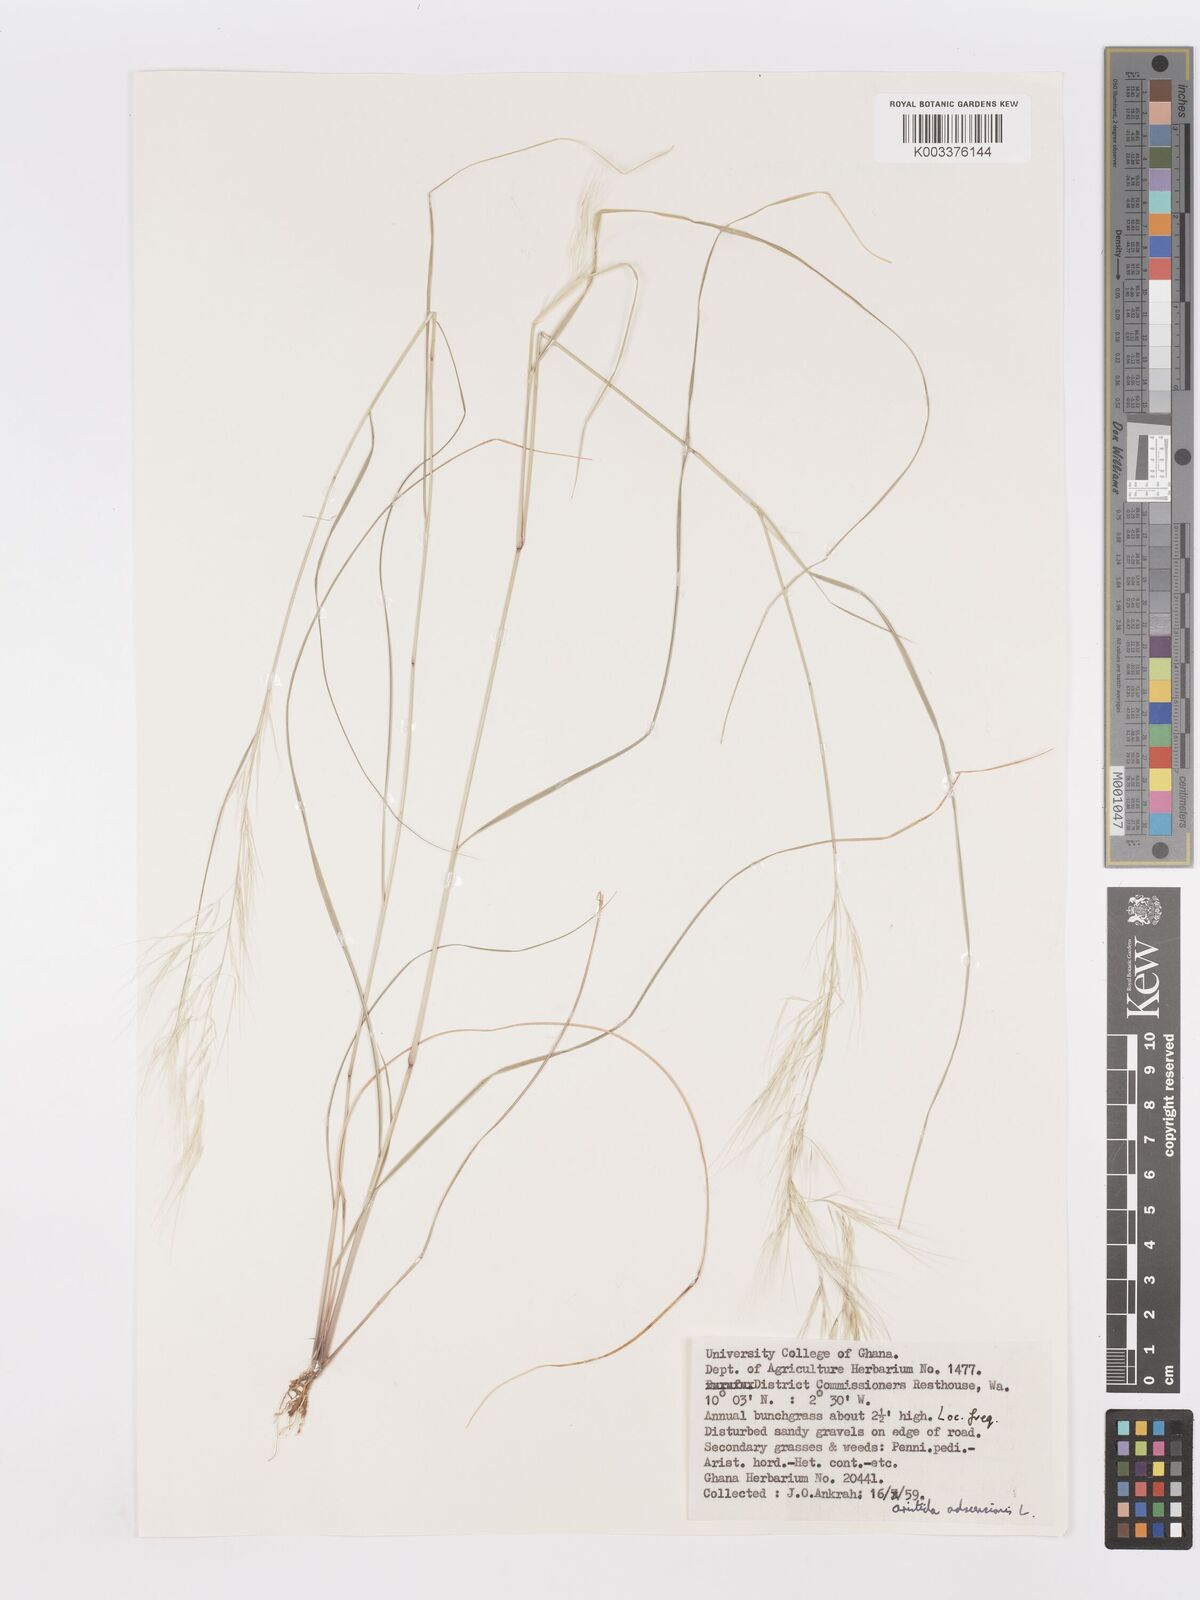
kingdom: Plantae
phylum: Tracheophyta
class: Liliopsida
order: Poales
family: Poaceae
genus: Aristida
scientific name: Aristida adscensionis
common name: Sixweeks threeawn
